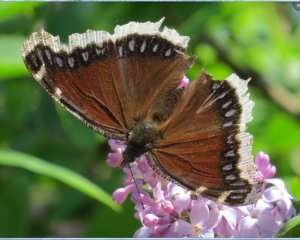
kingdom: Animalia
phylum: Arthropoda
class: Insecta
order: Lepidoptera
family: Nymphalidae
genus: Nymphalis
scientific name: Nymphalis antiopa
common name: Mourning Cloak
